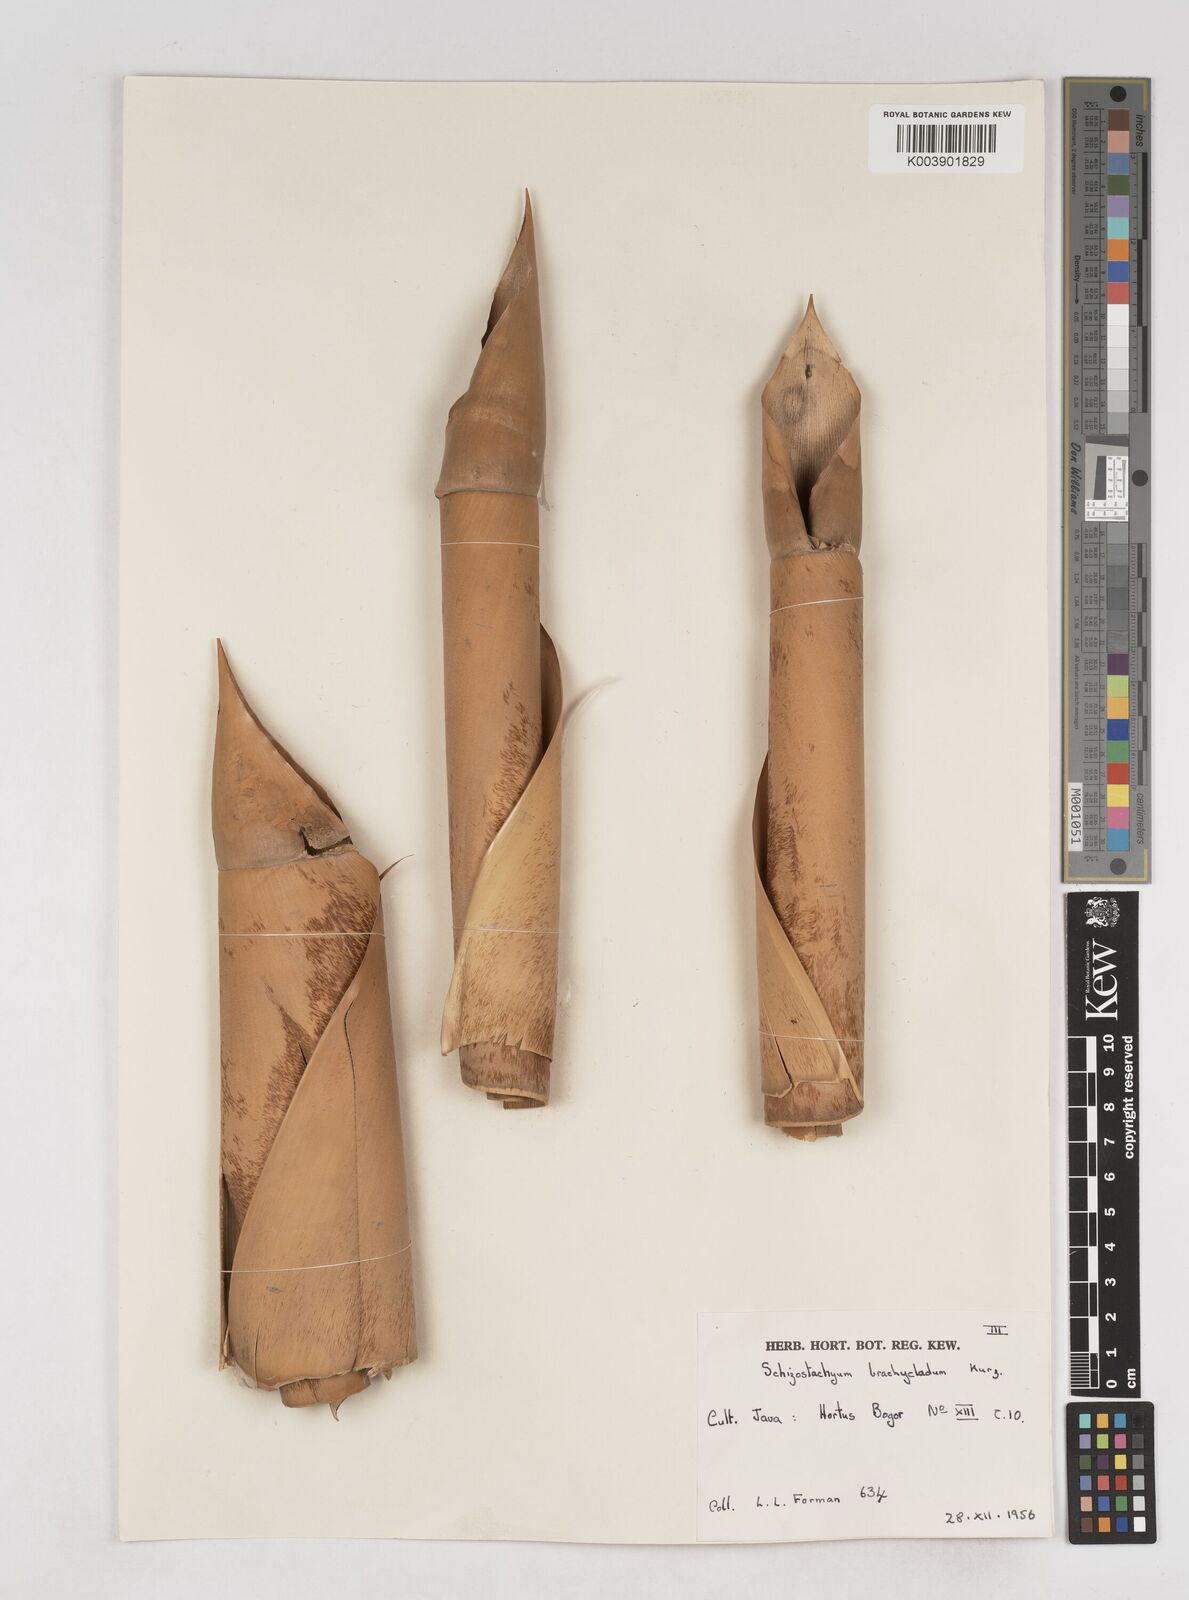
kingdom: Plantae
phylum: Tracheophyta
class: Liliopsida
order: Poales
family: Poaceae
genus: Schizostachyum
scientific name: Schizostachyum brachycladum
